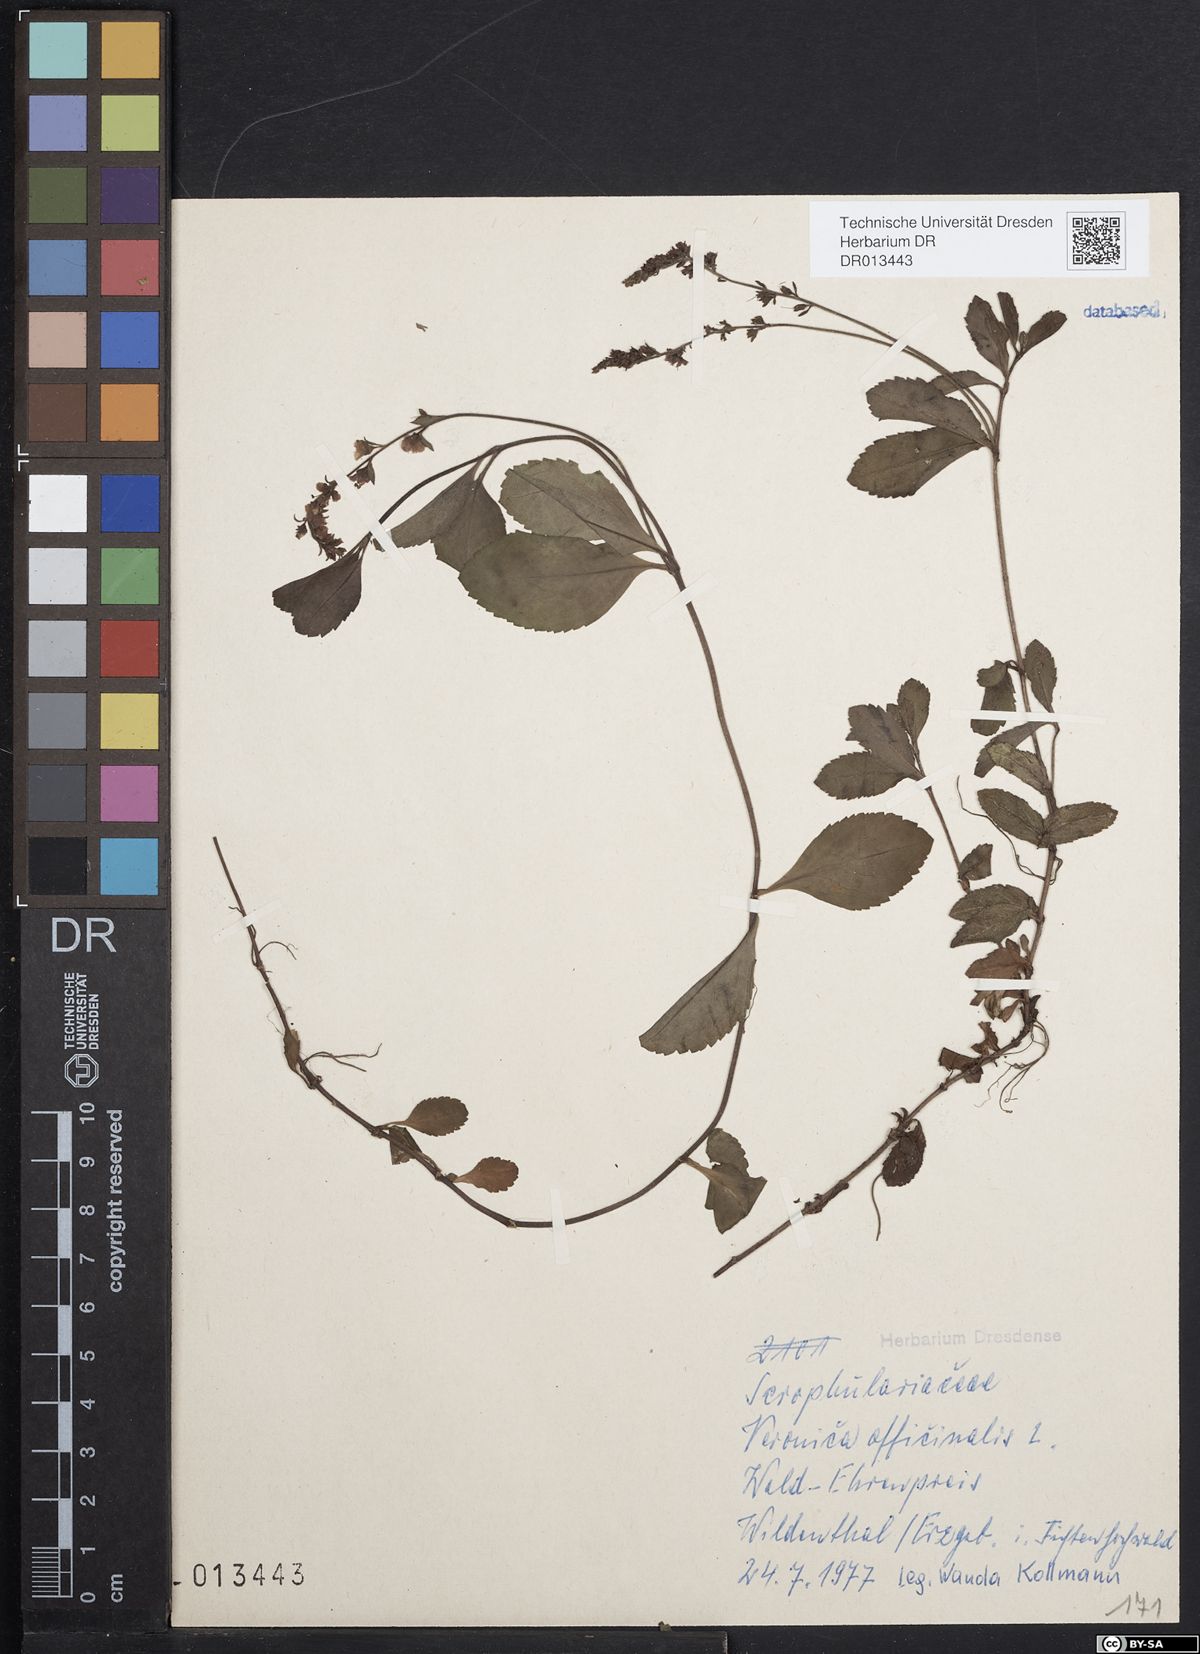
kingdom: Plantae
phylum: Tracheophyta
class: Magnoliopsida
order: Lamiales
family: Plantaginaceae
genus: Veronica
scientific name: Veronica officinalis
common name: Common speedwell
